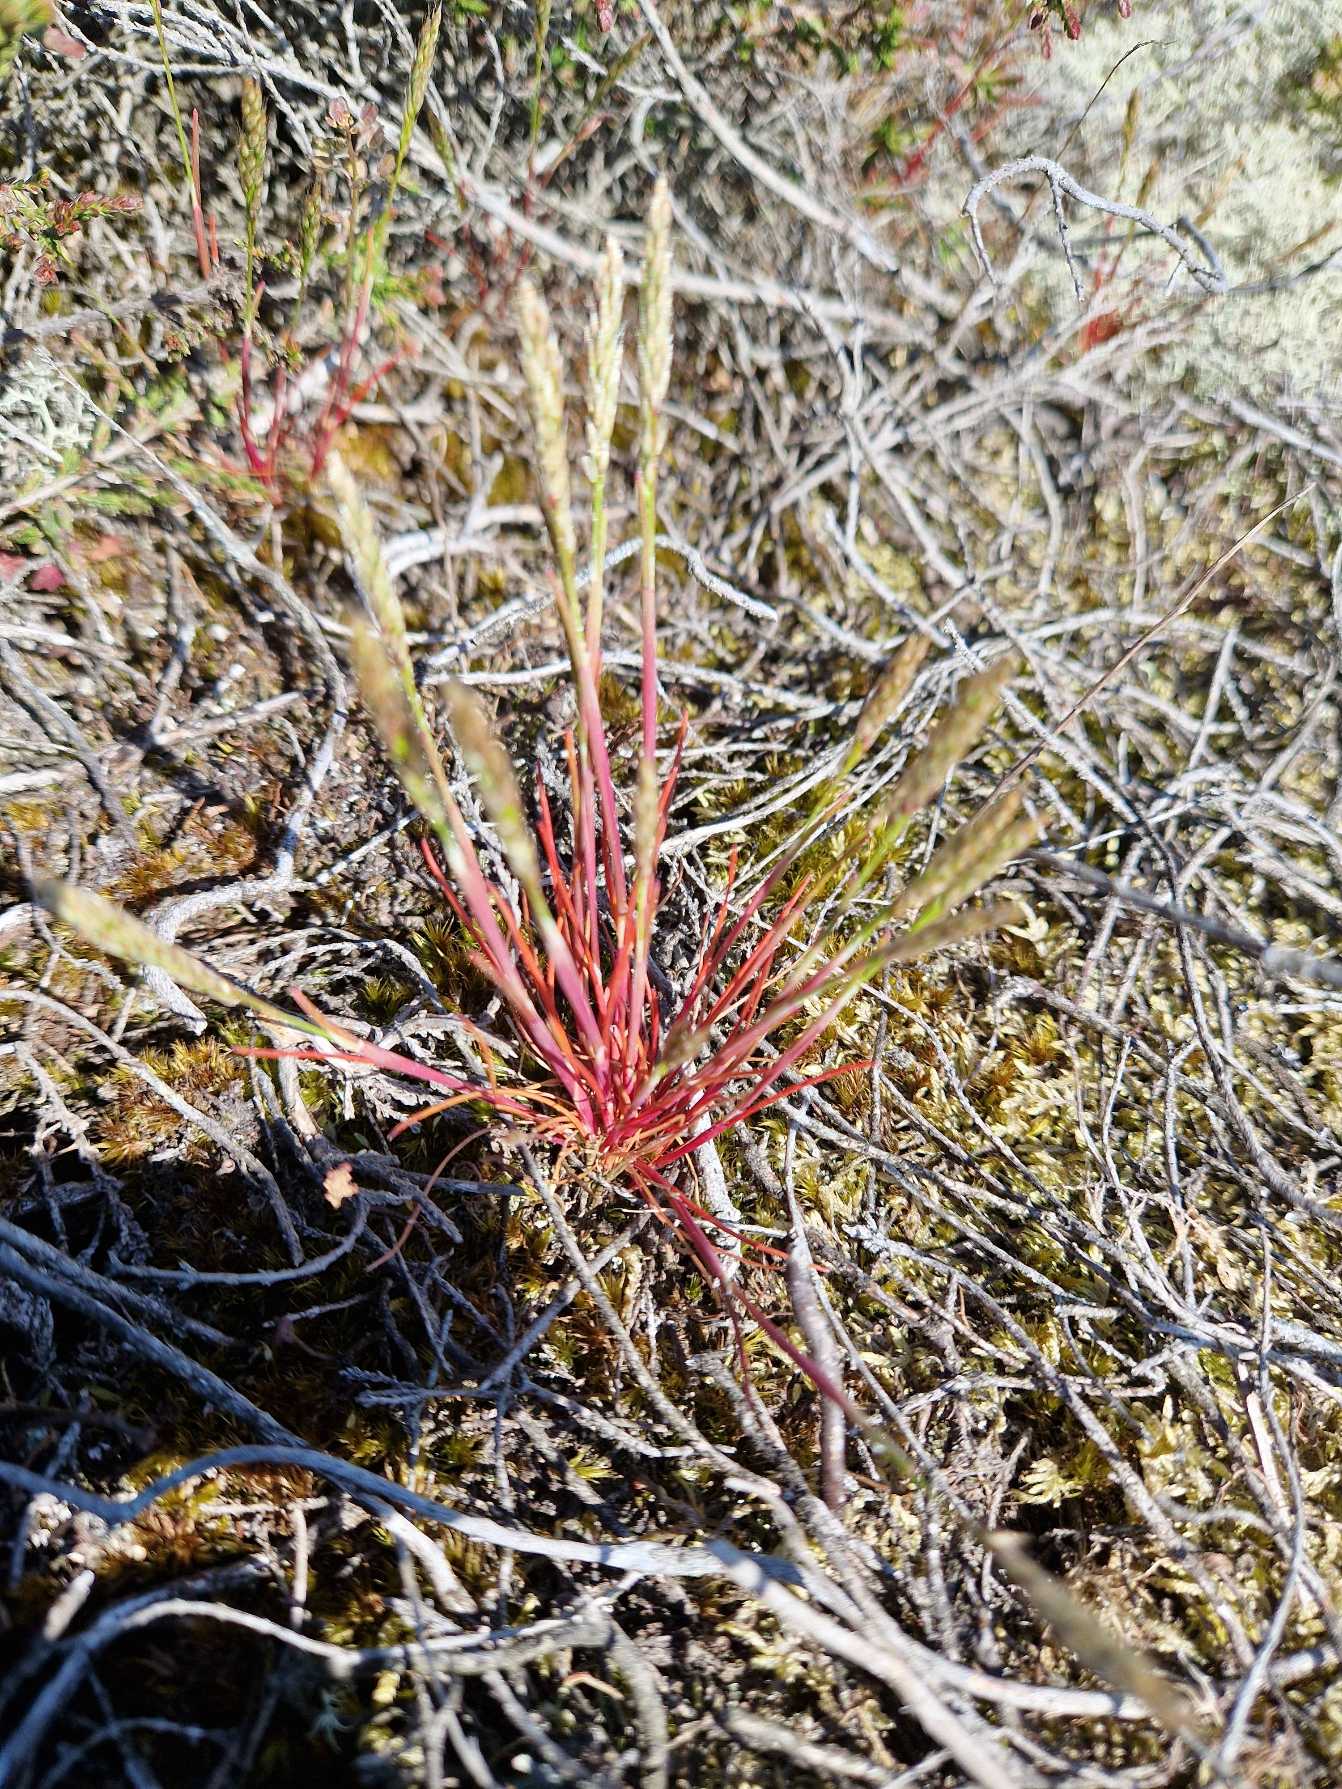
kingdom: Plantae
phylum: Tracheophyta
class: Liliopsida
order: Poales
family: Poaceae
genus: Aira
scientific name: Aira praecox
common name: Tidlig dværgbunke
